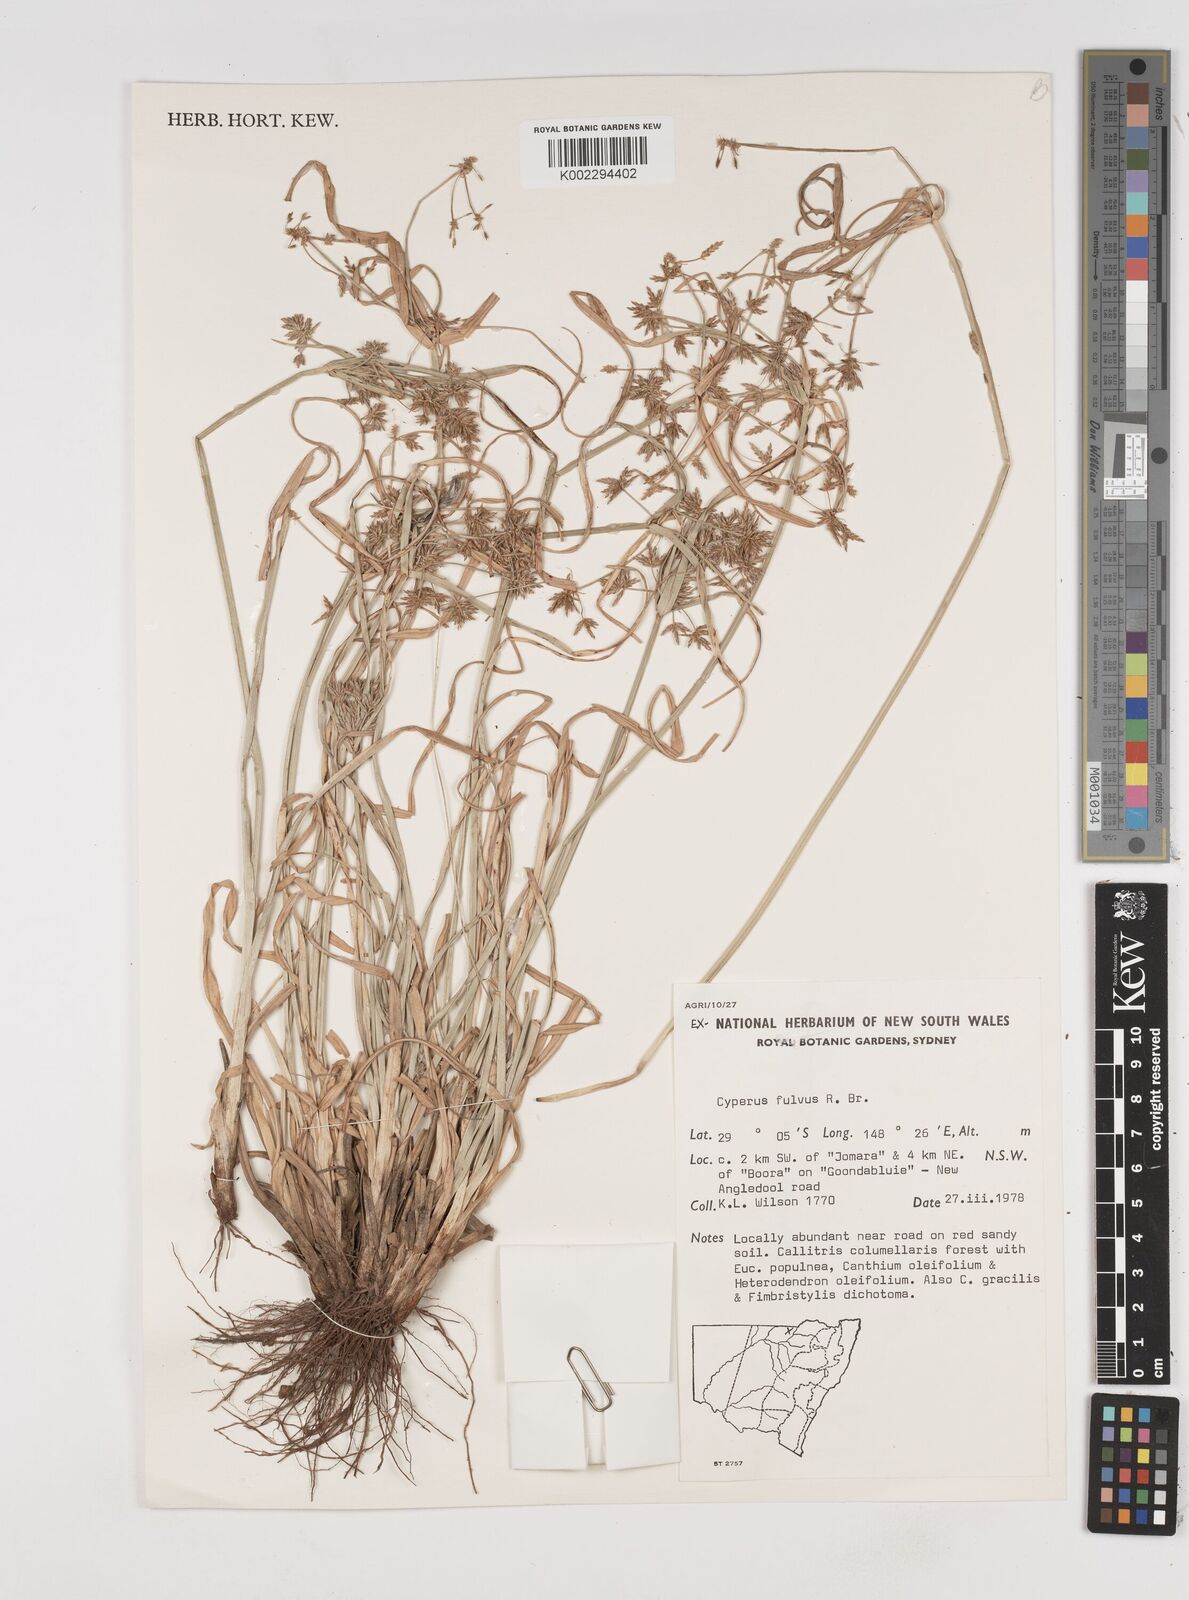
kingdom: Plantae
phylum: Tracheophyta
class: Liliopsida
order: Poales
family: Cyperaceae
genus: Cyperus
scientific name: Cyperus fulvus
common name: Sticky sedge
